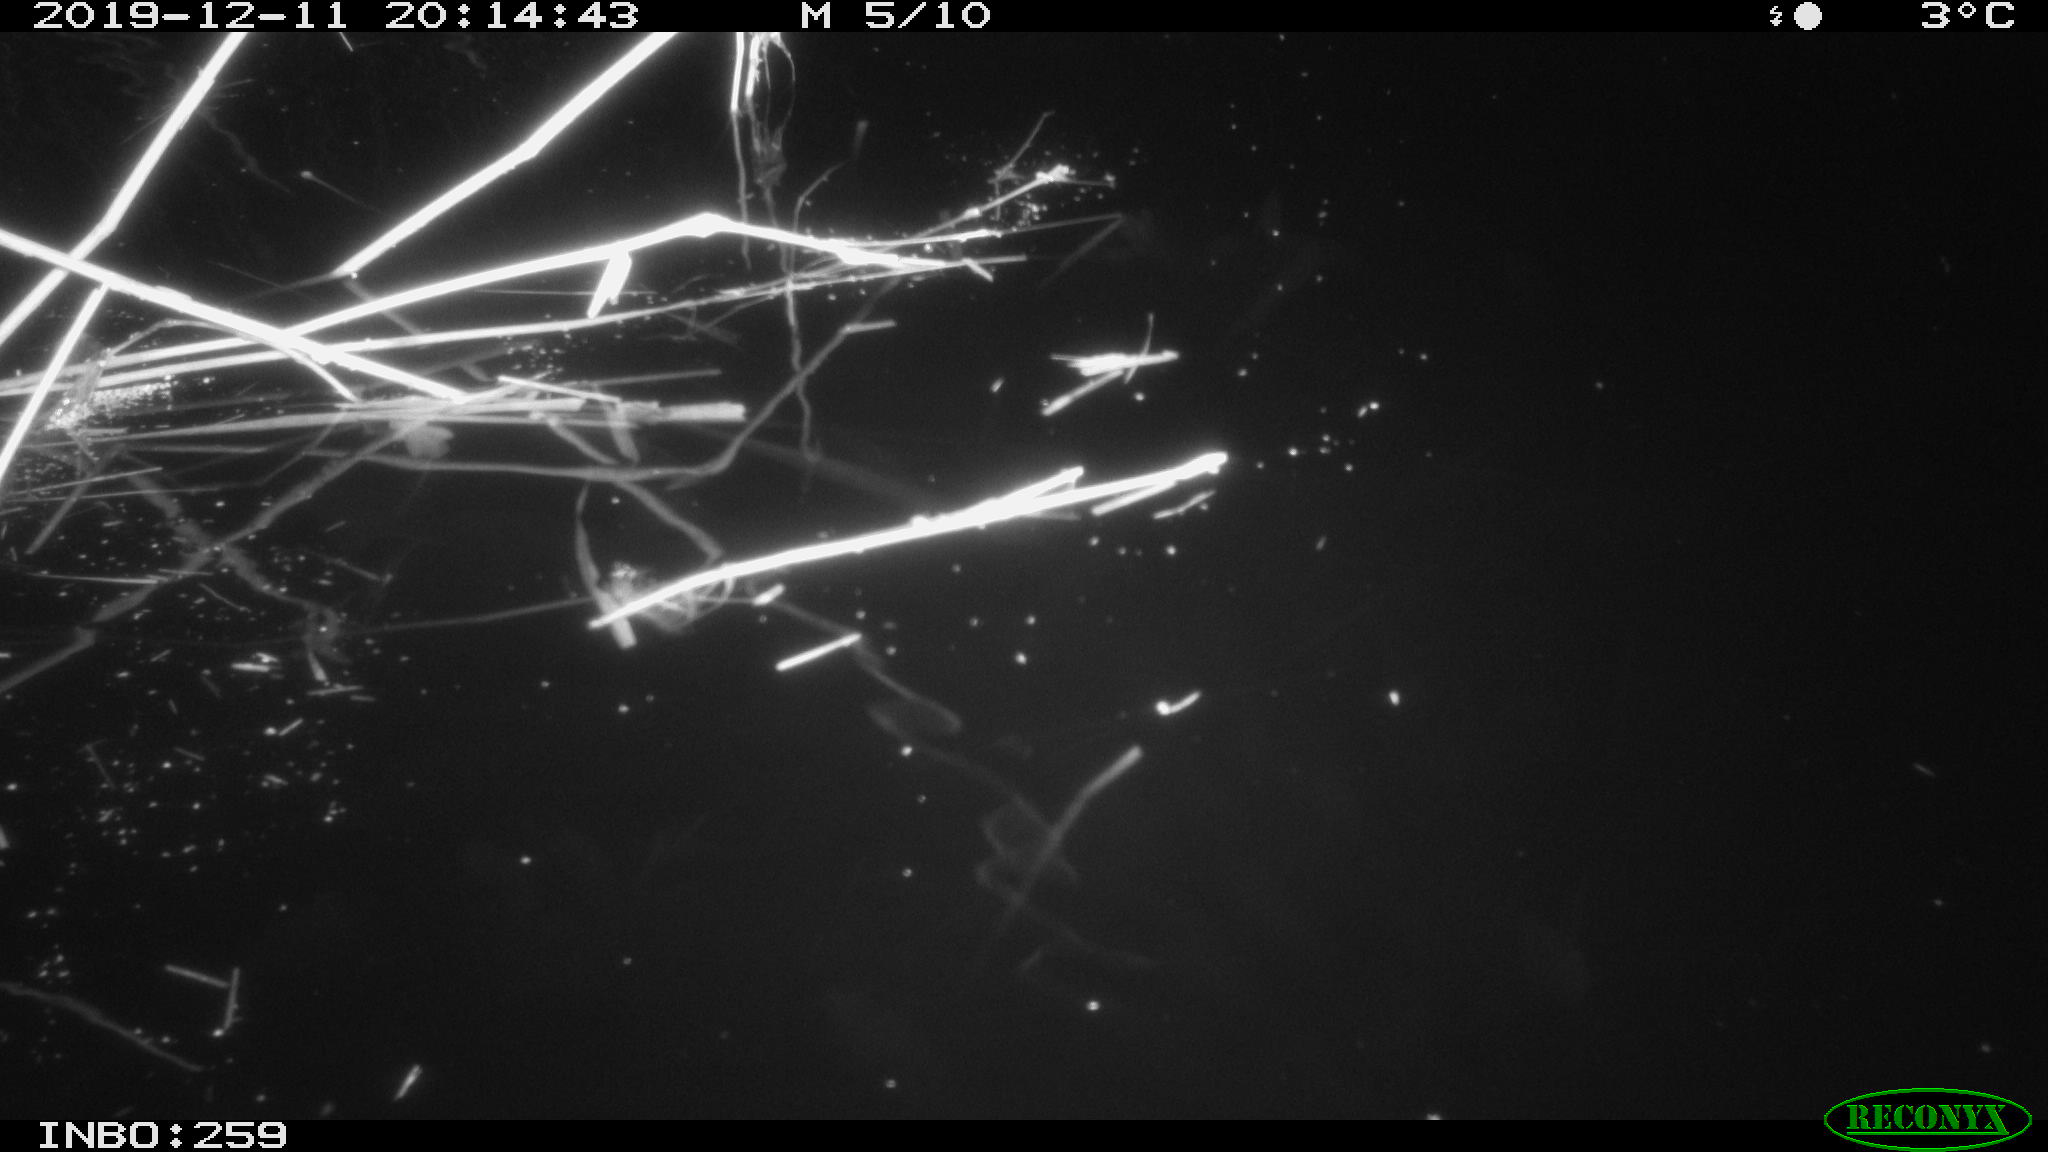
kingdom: Animalia
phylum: Chordata
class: Mammalia
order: Rodentia
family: Muridae
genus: Rattus
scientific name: Rattus norvegicus
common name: Brown rat
